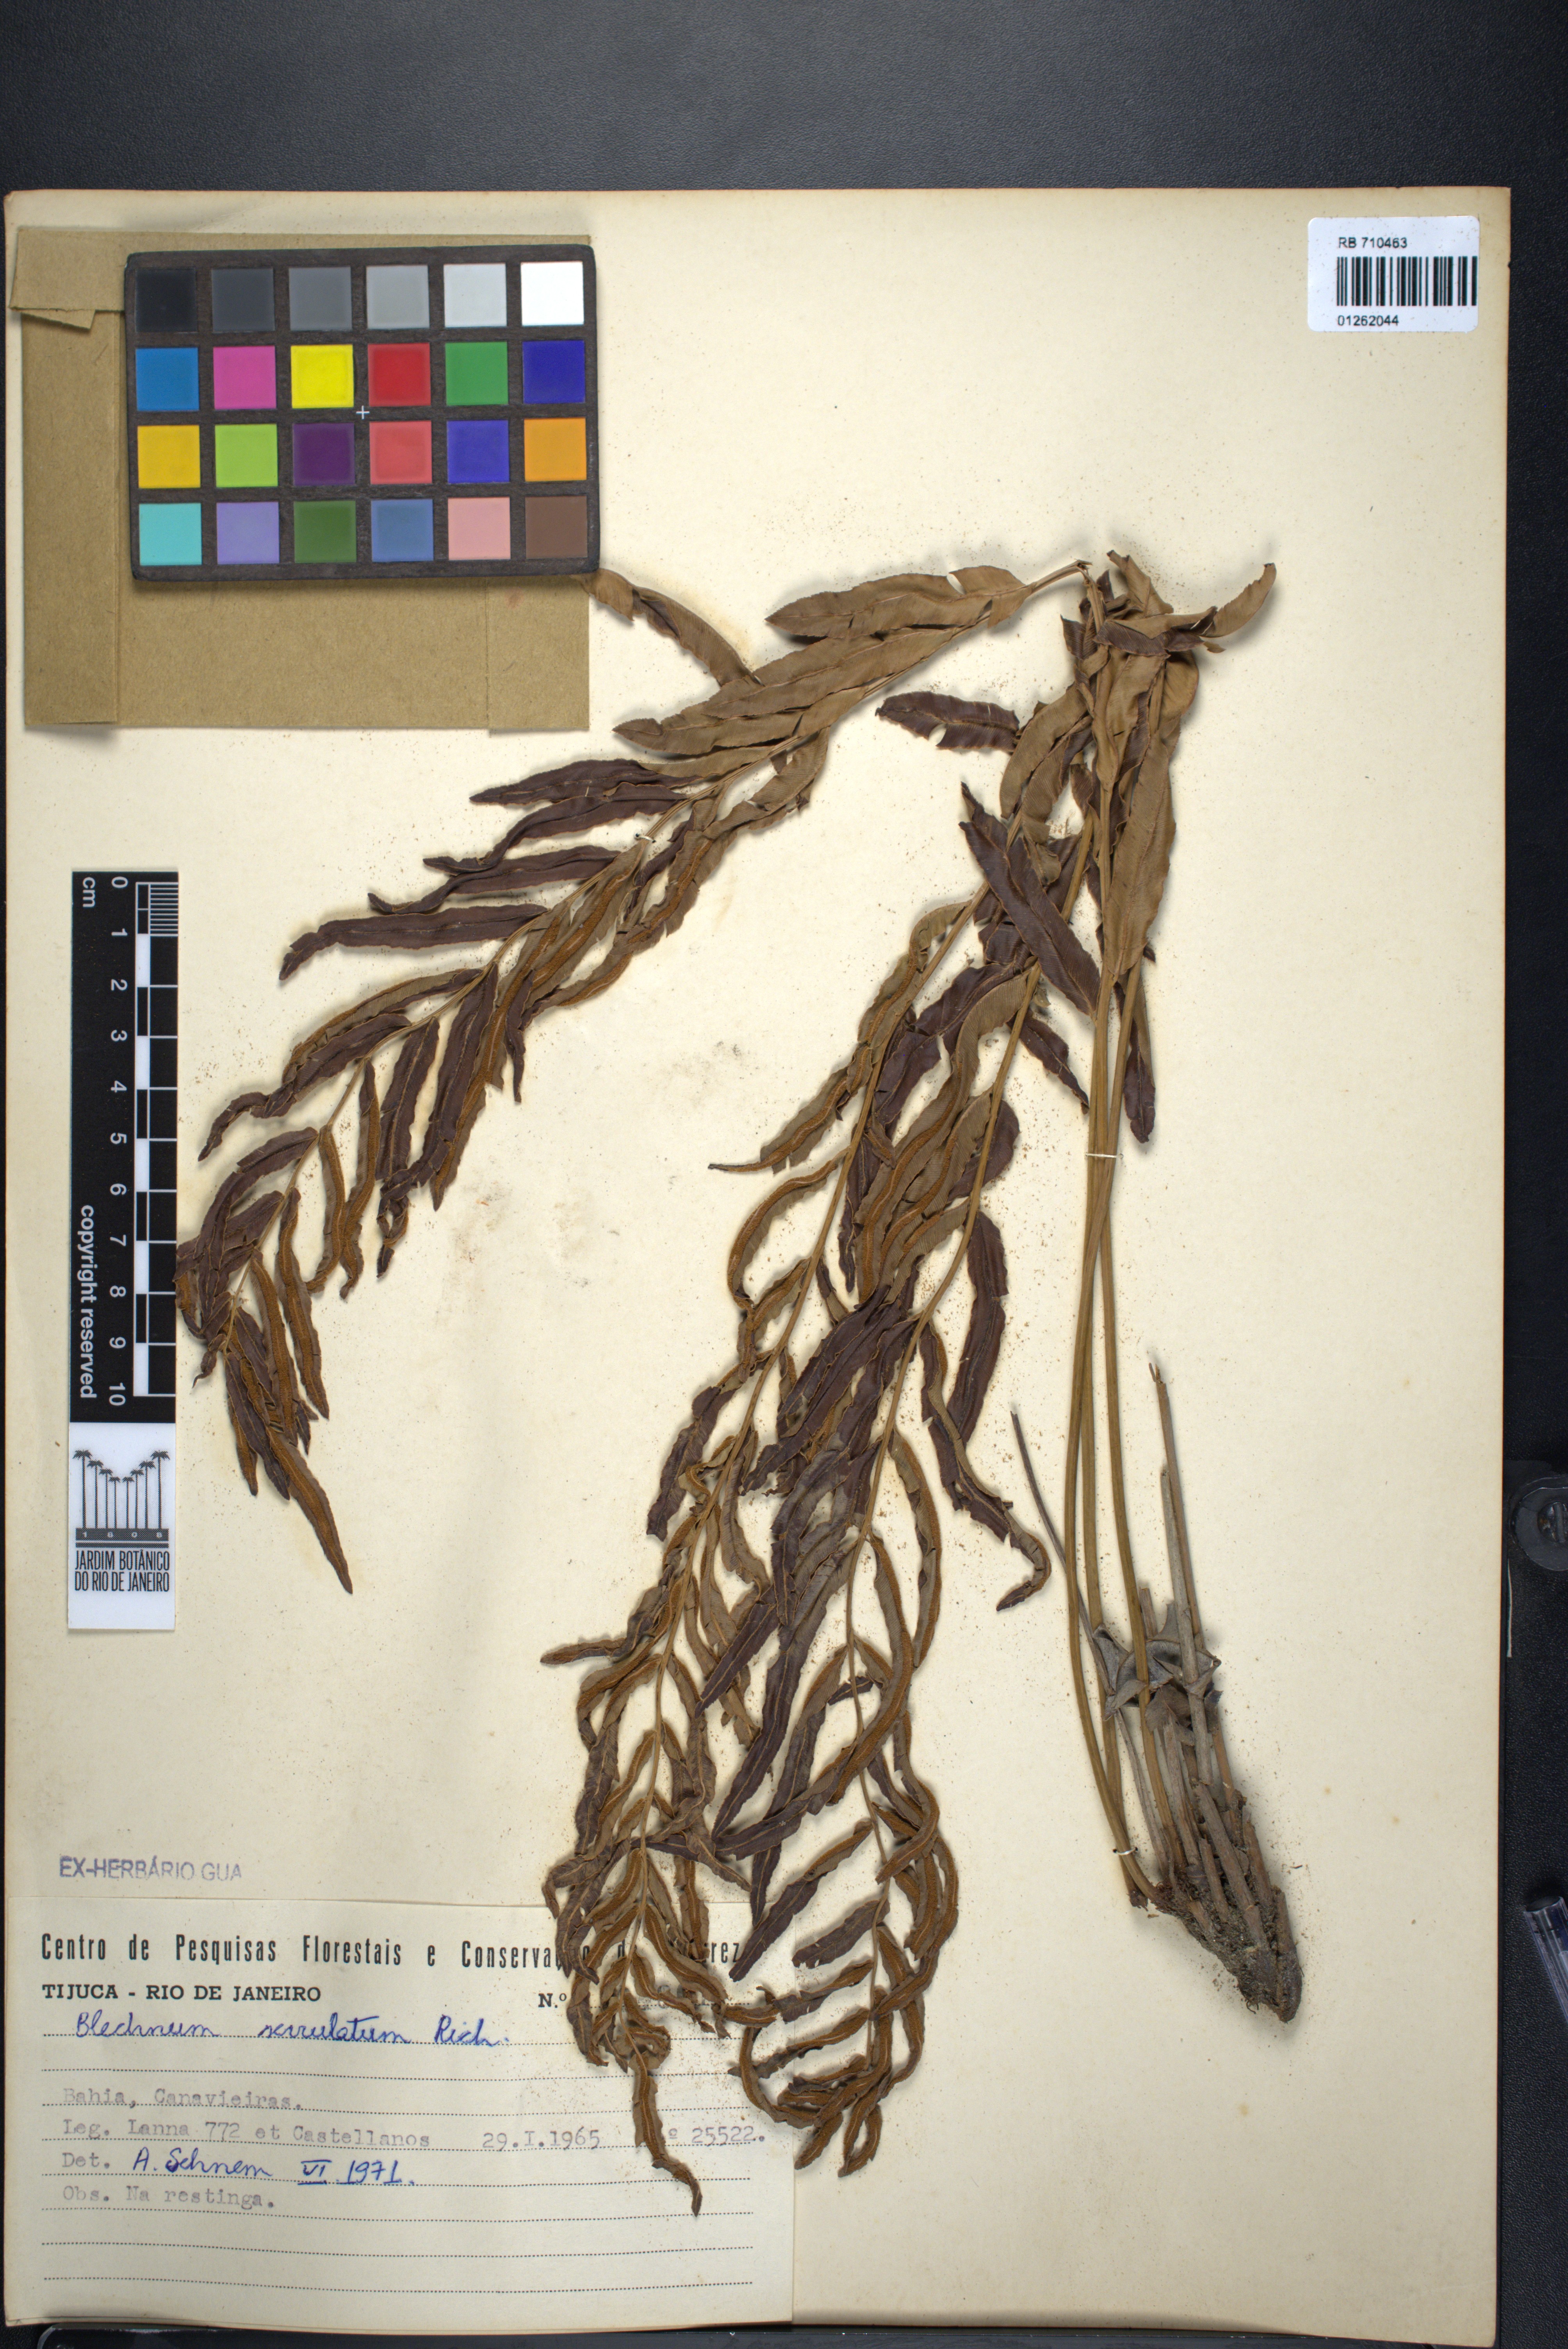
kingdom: Plantae
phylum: Tracheophyta
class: Polypodiopsida
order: Polypodiales
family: Blechnaceae
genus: Telmatoblechnum
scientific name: Telmatoblechnum serrulatum
